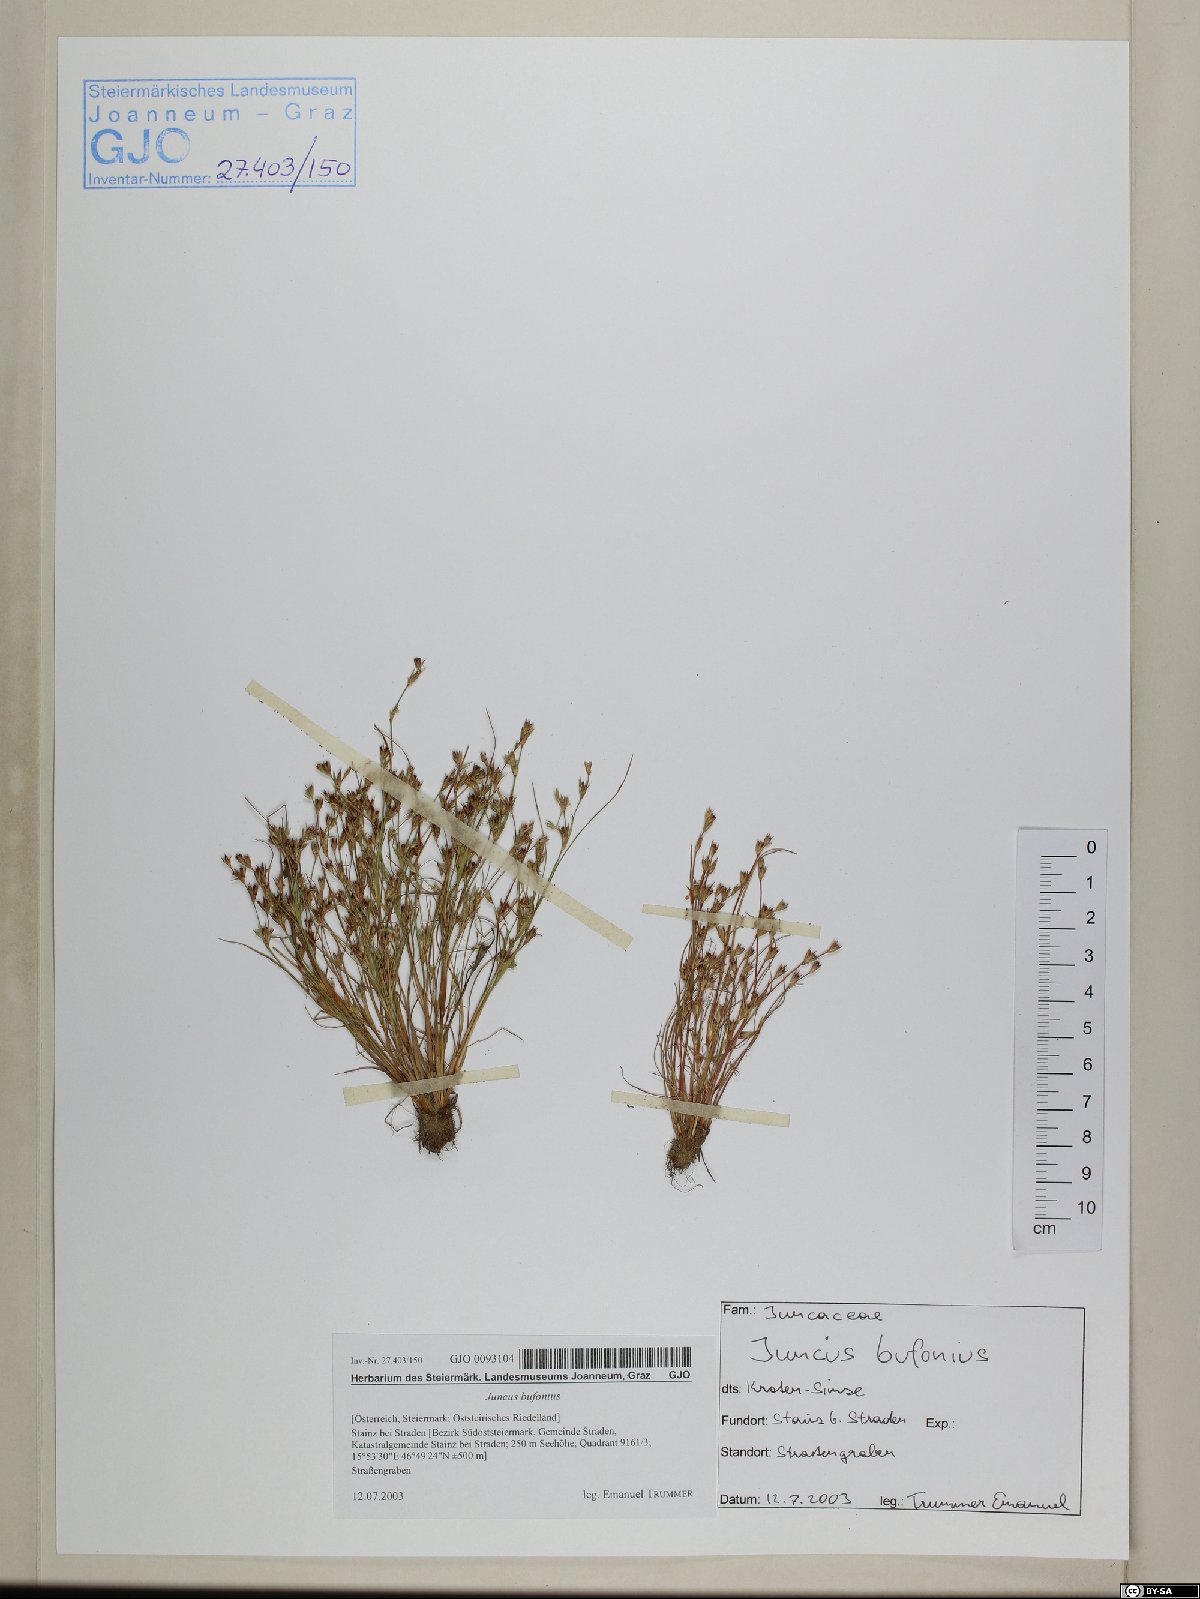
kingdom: Plantae
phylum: Tracheophyta
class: Liliopsida
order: Poales
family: Juncaceae
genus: Juncus
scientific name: Juncus bufonius
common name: Toad rush
